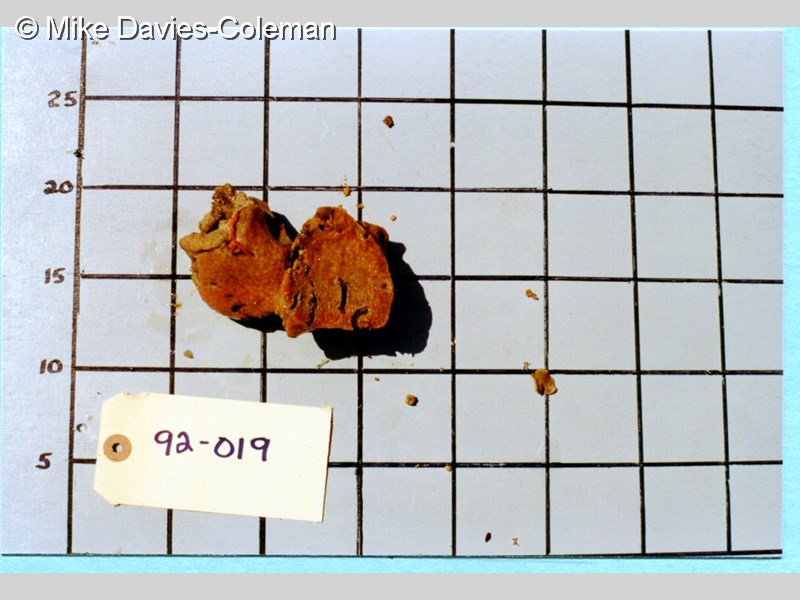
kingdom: Animalia
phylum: Chordata
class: Ascidiacea
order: Aplousobranchia
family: Polyclinidae
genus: Aplidium
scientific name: Aplidium
